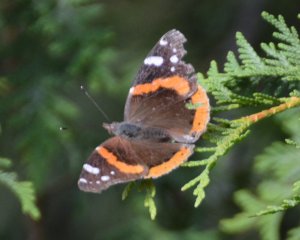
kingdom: Animalia
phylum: Arthropoda
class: Insecta
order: Lepidoptera
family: Nymphalidae
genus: Vanessa
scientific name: Vanessa atalanta
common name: Red Admiral
